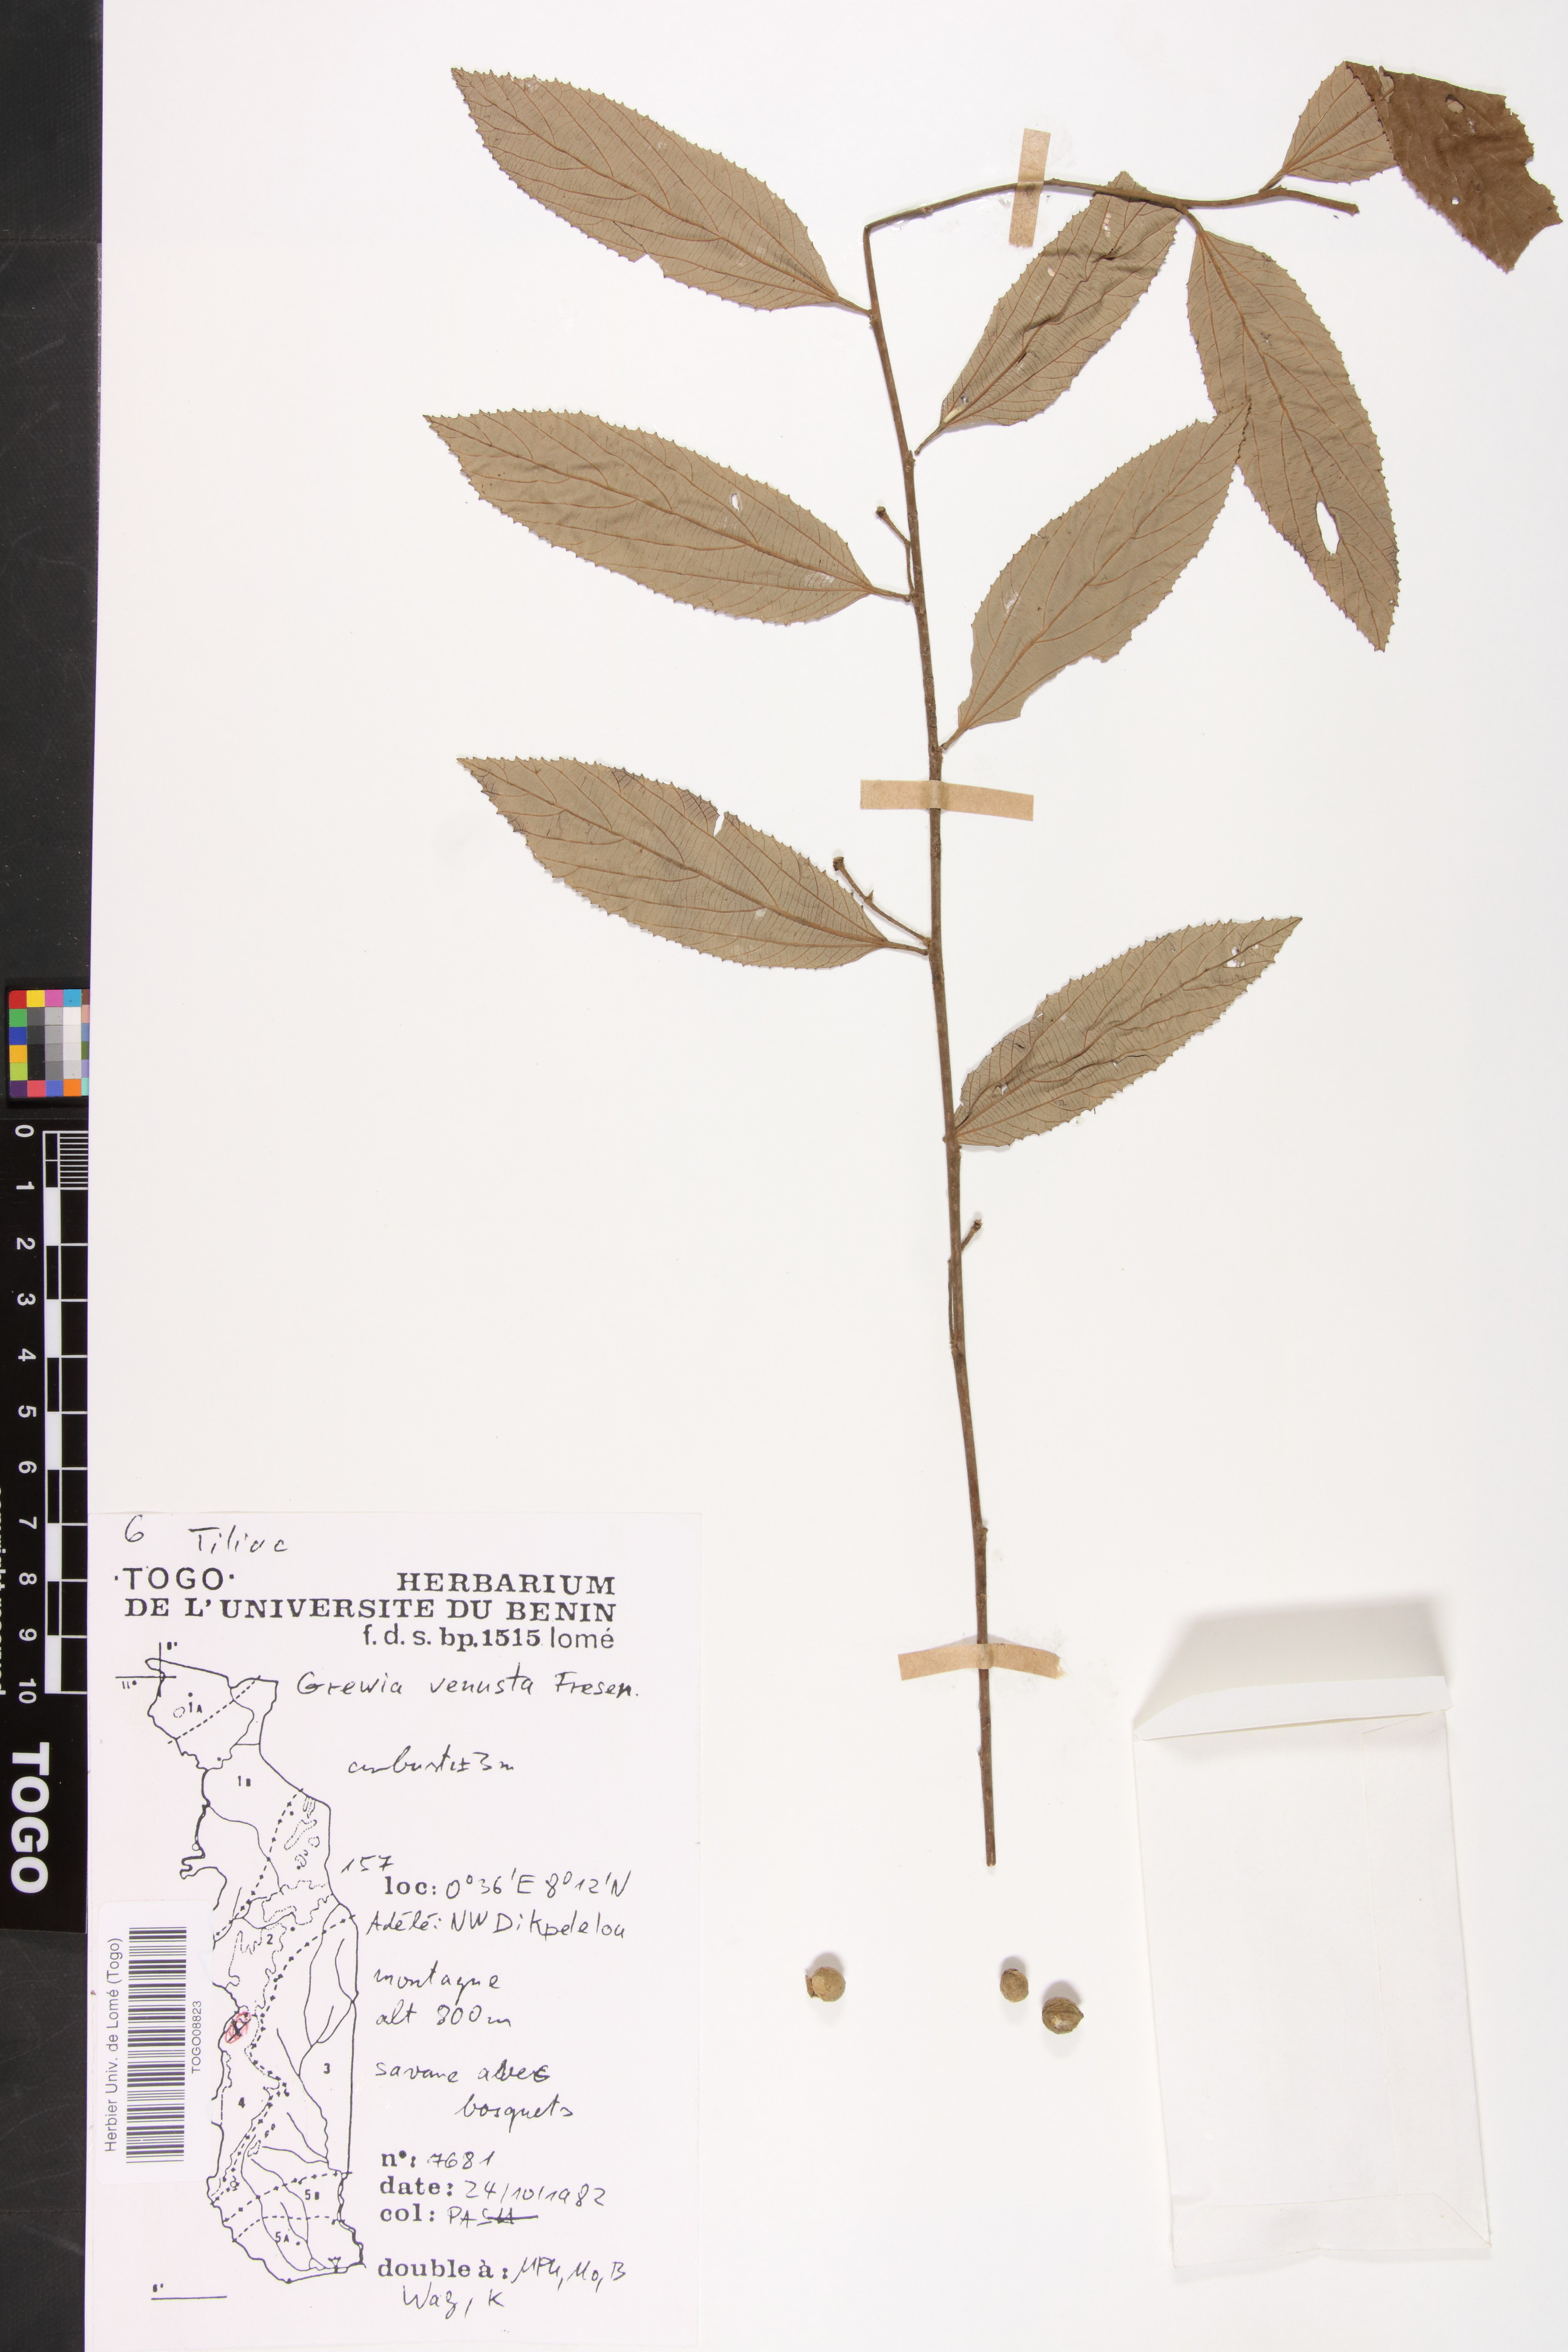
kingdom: Plantae
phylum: Tracheophyta
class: Magnoliopsida
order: Malvales
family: Malvaceae
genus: Grewia
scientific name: Grewia mollis
